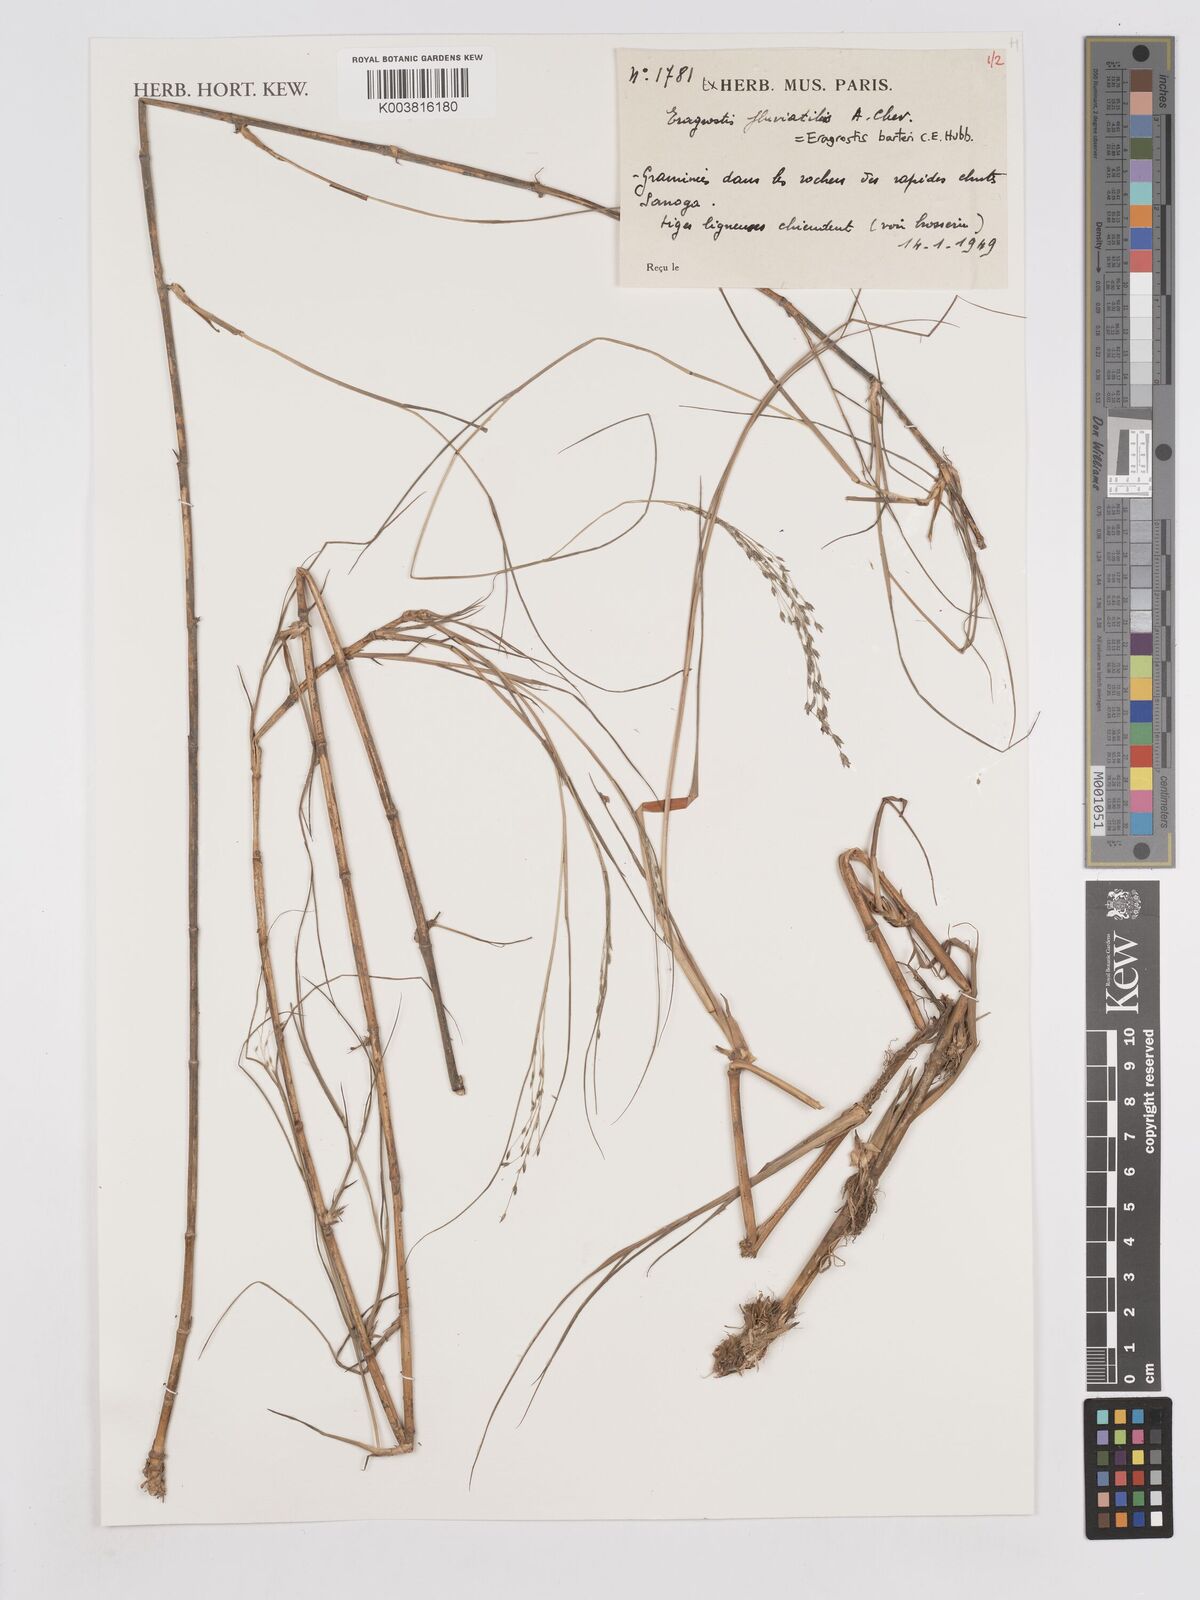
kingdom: Plantae
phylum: Tracheophyta
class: Liliopsida
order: Poales
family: Poaceae
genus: Eragrostis
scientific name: Eragrostis barteri
